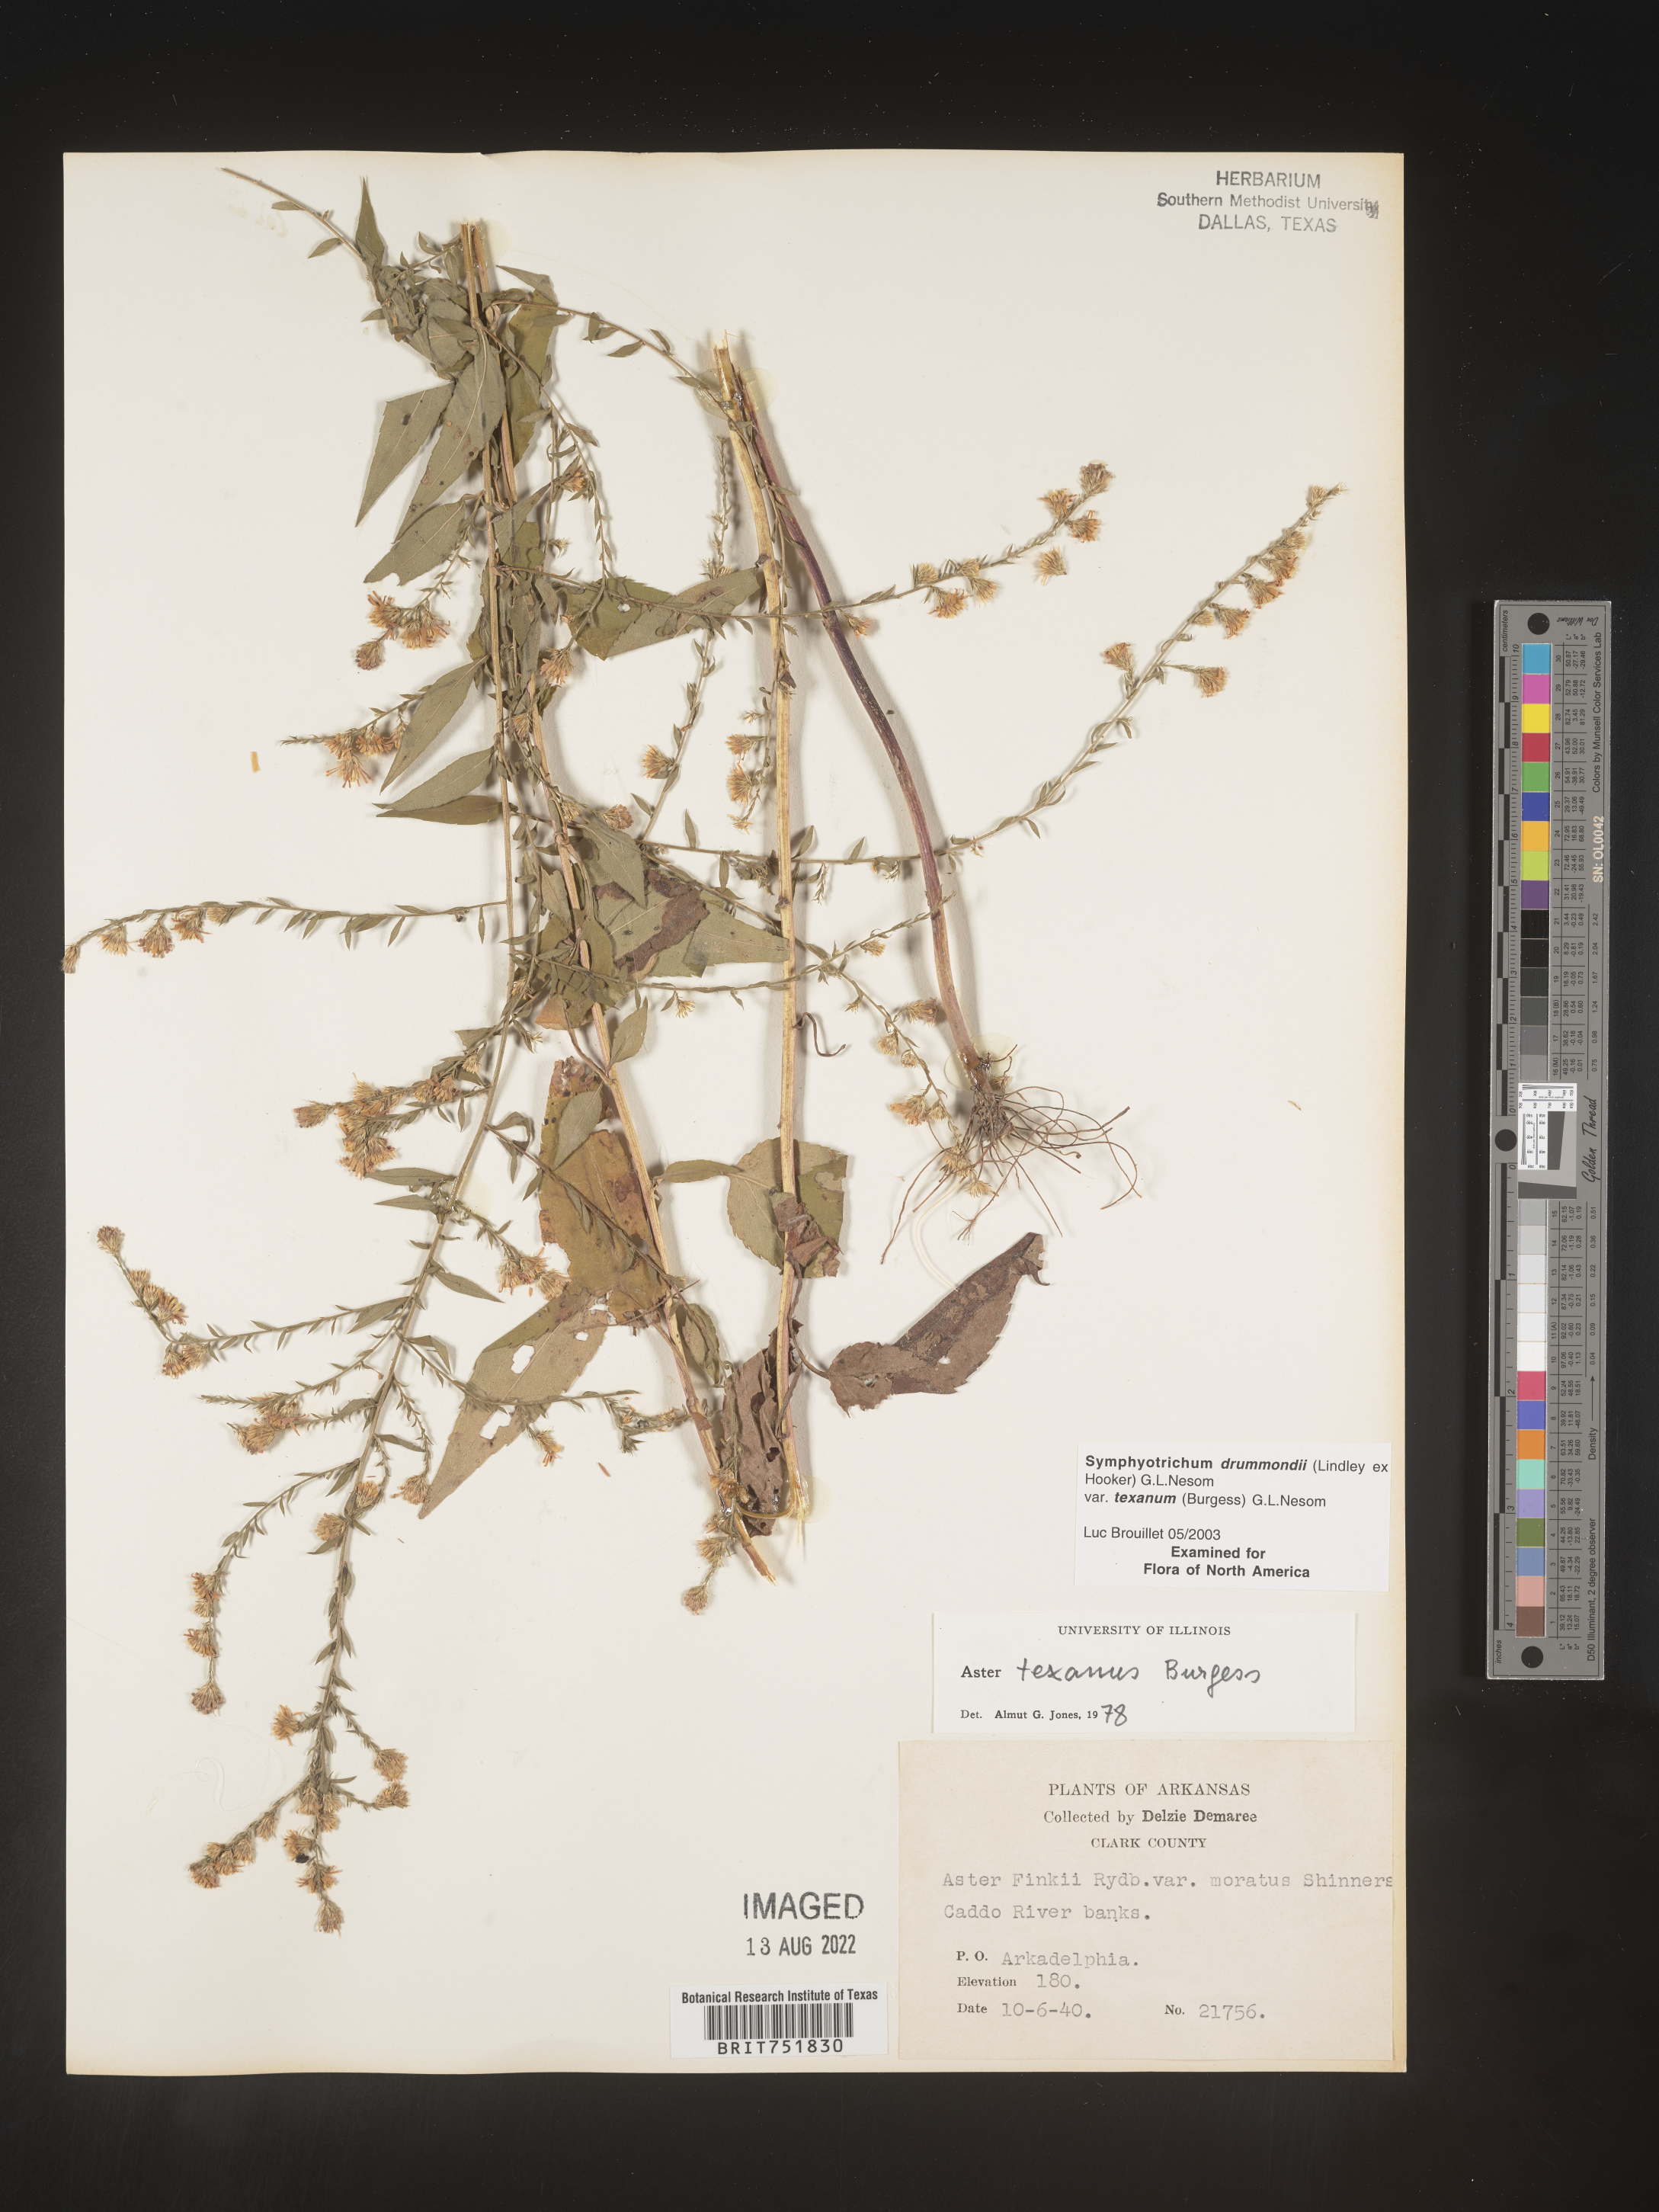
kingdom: Plantae
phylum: Tracheophyta
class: Magnoliopsida
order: Asterales
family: Asteraceae
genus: Symphyotrichum
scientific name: Symphyotrichum drummondii
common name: Drummond's aster
